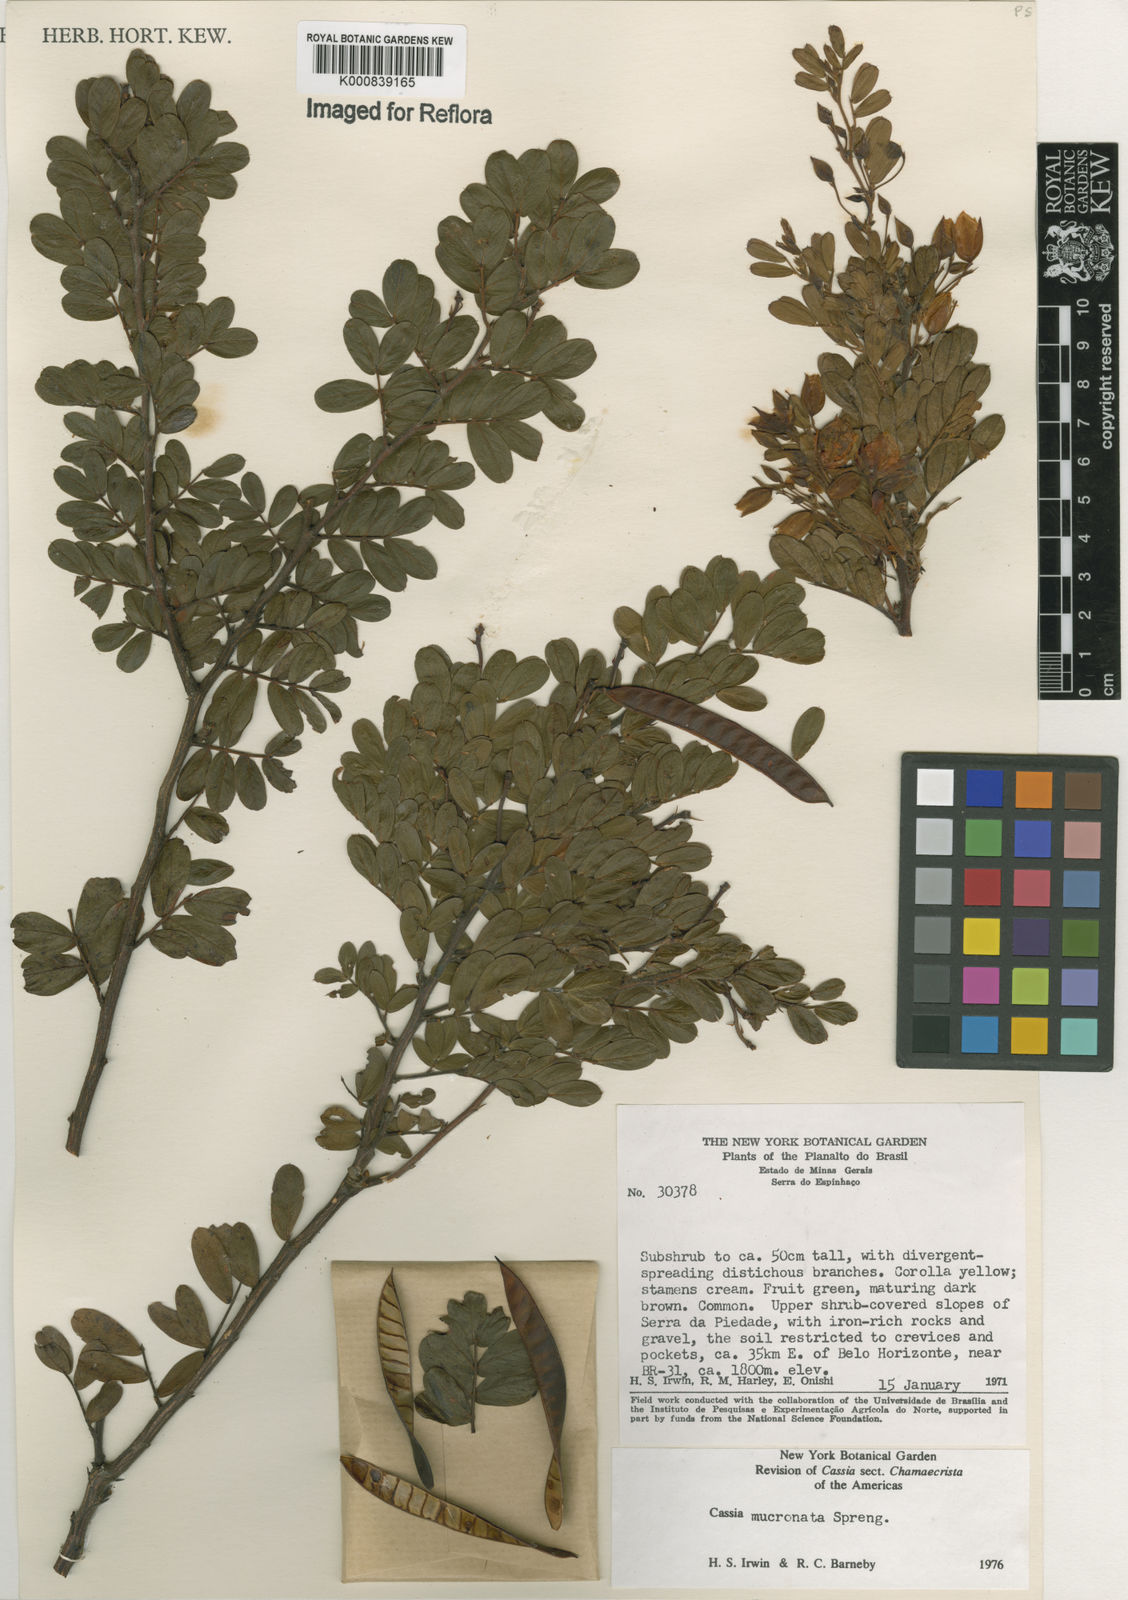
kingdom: Plantae
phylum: Tracheophyta
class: Magnoliopsida
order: Fabales
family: Fabaceae
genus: Chamaecrista
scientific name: Chamaecrista mucronata
